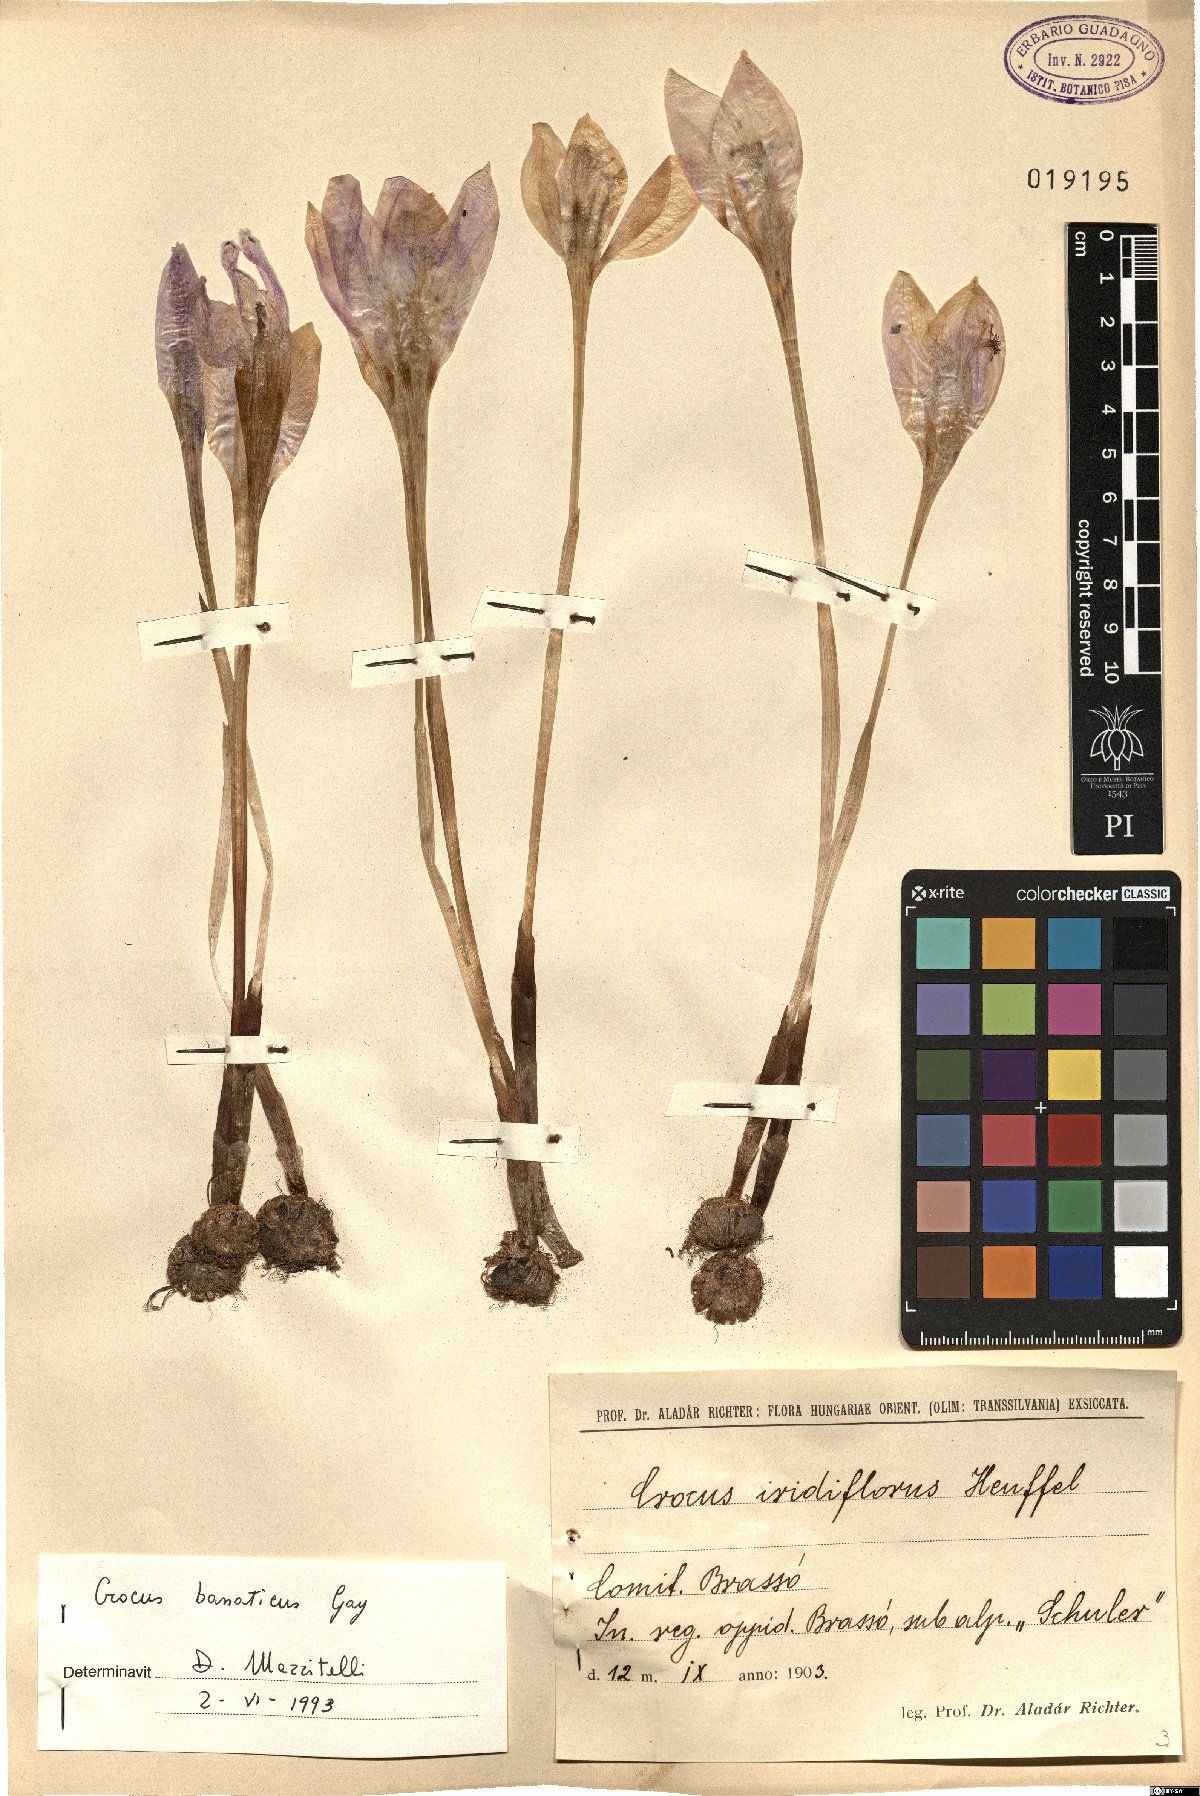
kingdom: Plantae
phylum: Tracheophyta
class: Liliopsida
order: Asparagales
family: Iridaceae
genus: Crocus
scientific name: Crocus banaticus
